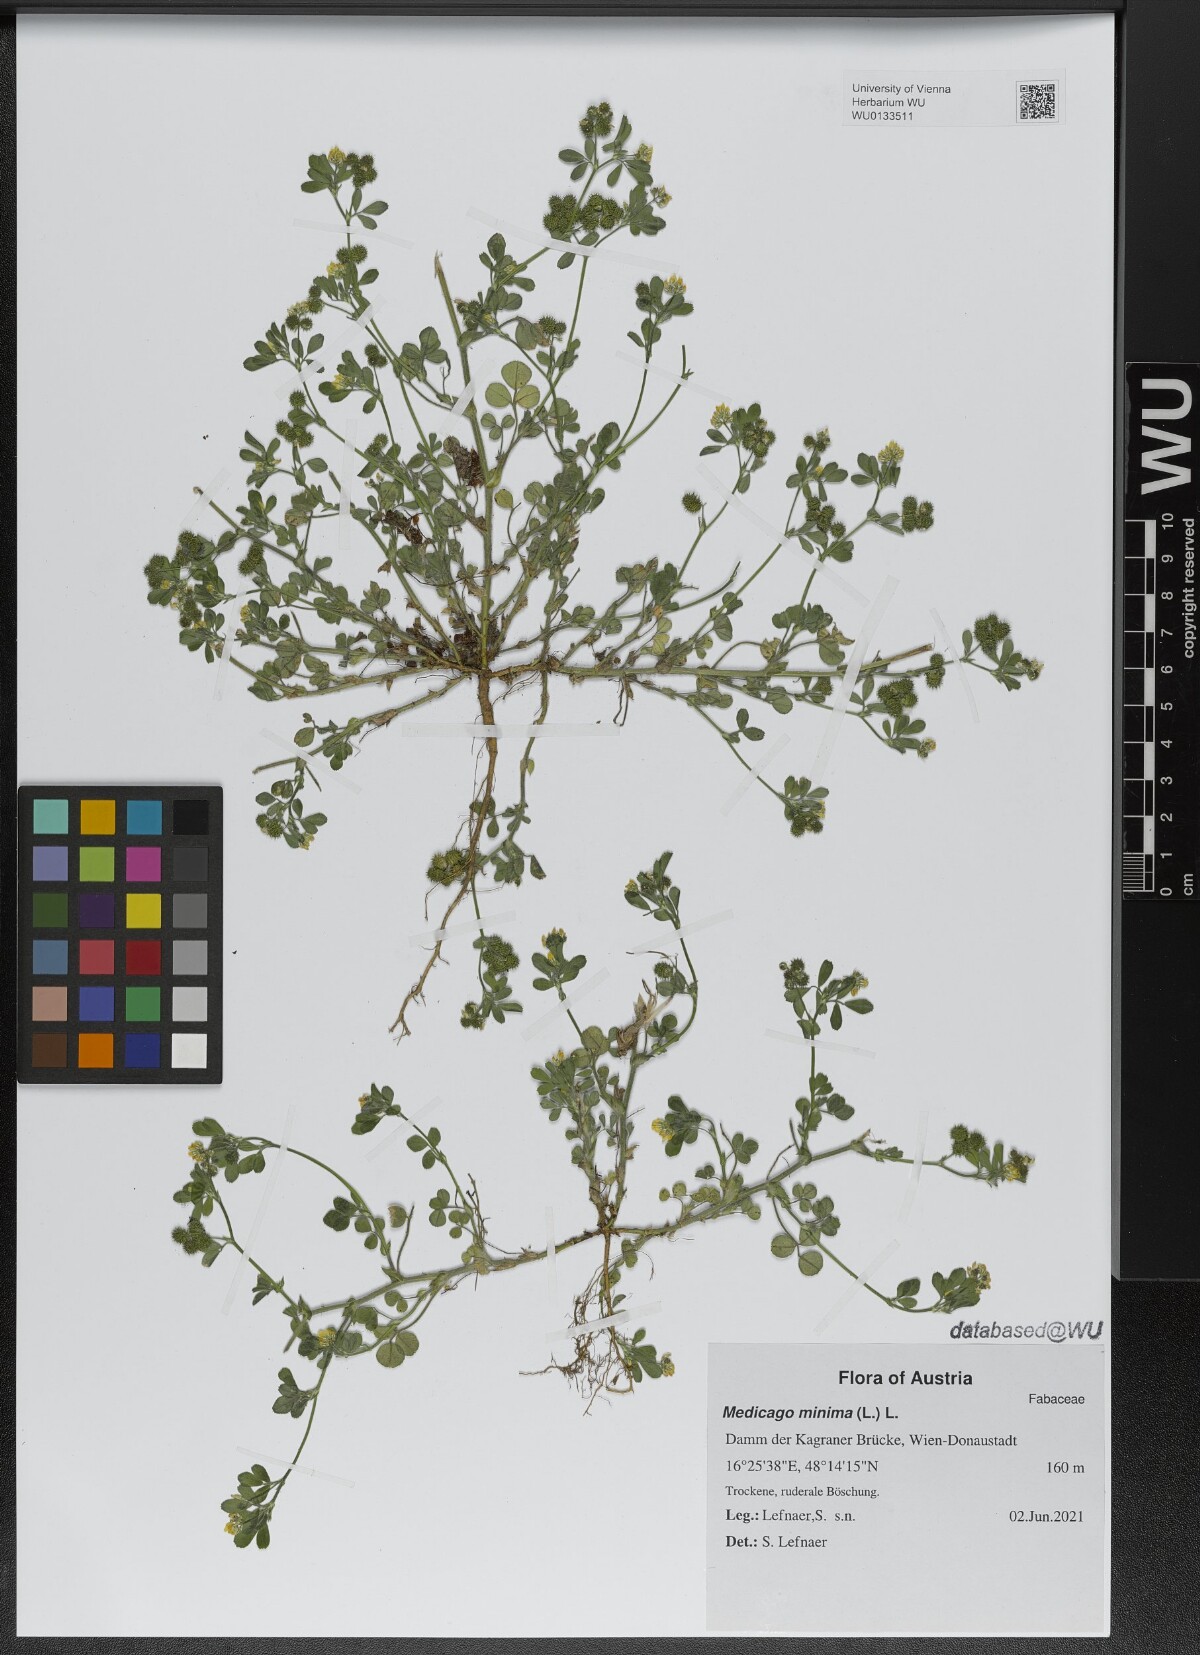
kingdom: Plantae
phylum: Tracheophyta
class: Magnoliopsida
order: Fabales
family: Fabaceae
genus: Medicago
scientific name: Medicago minima
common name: Little bur-clover
